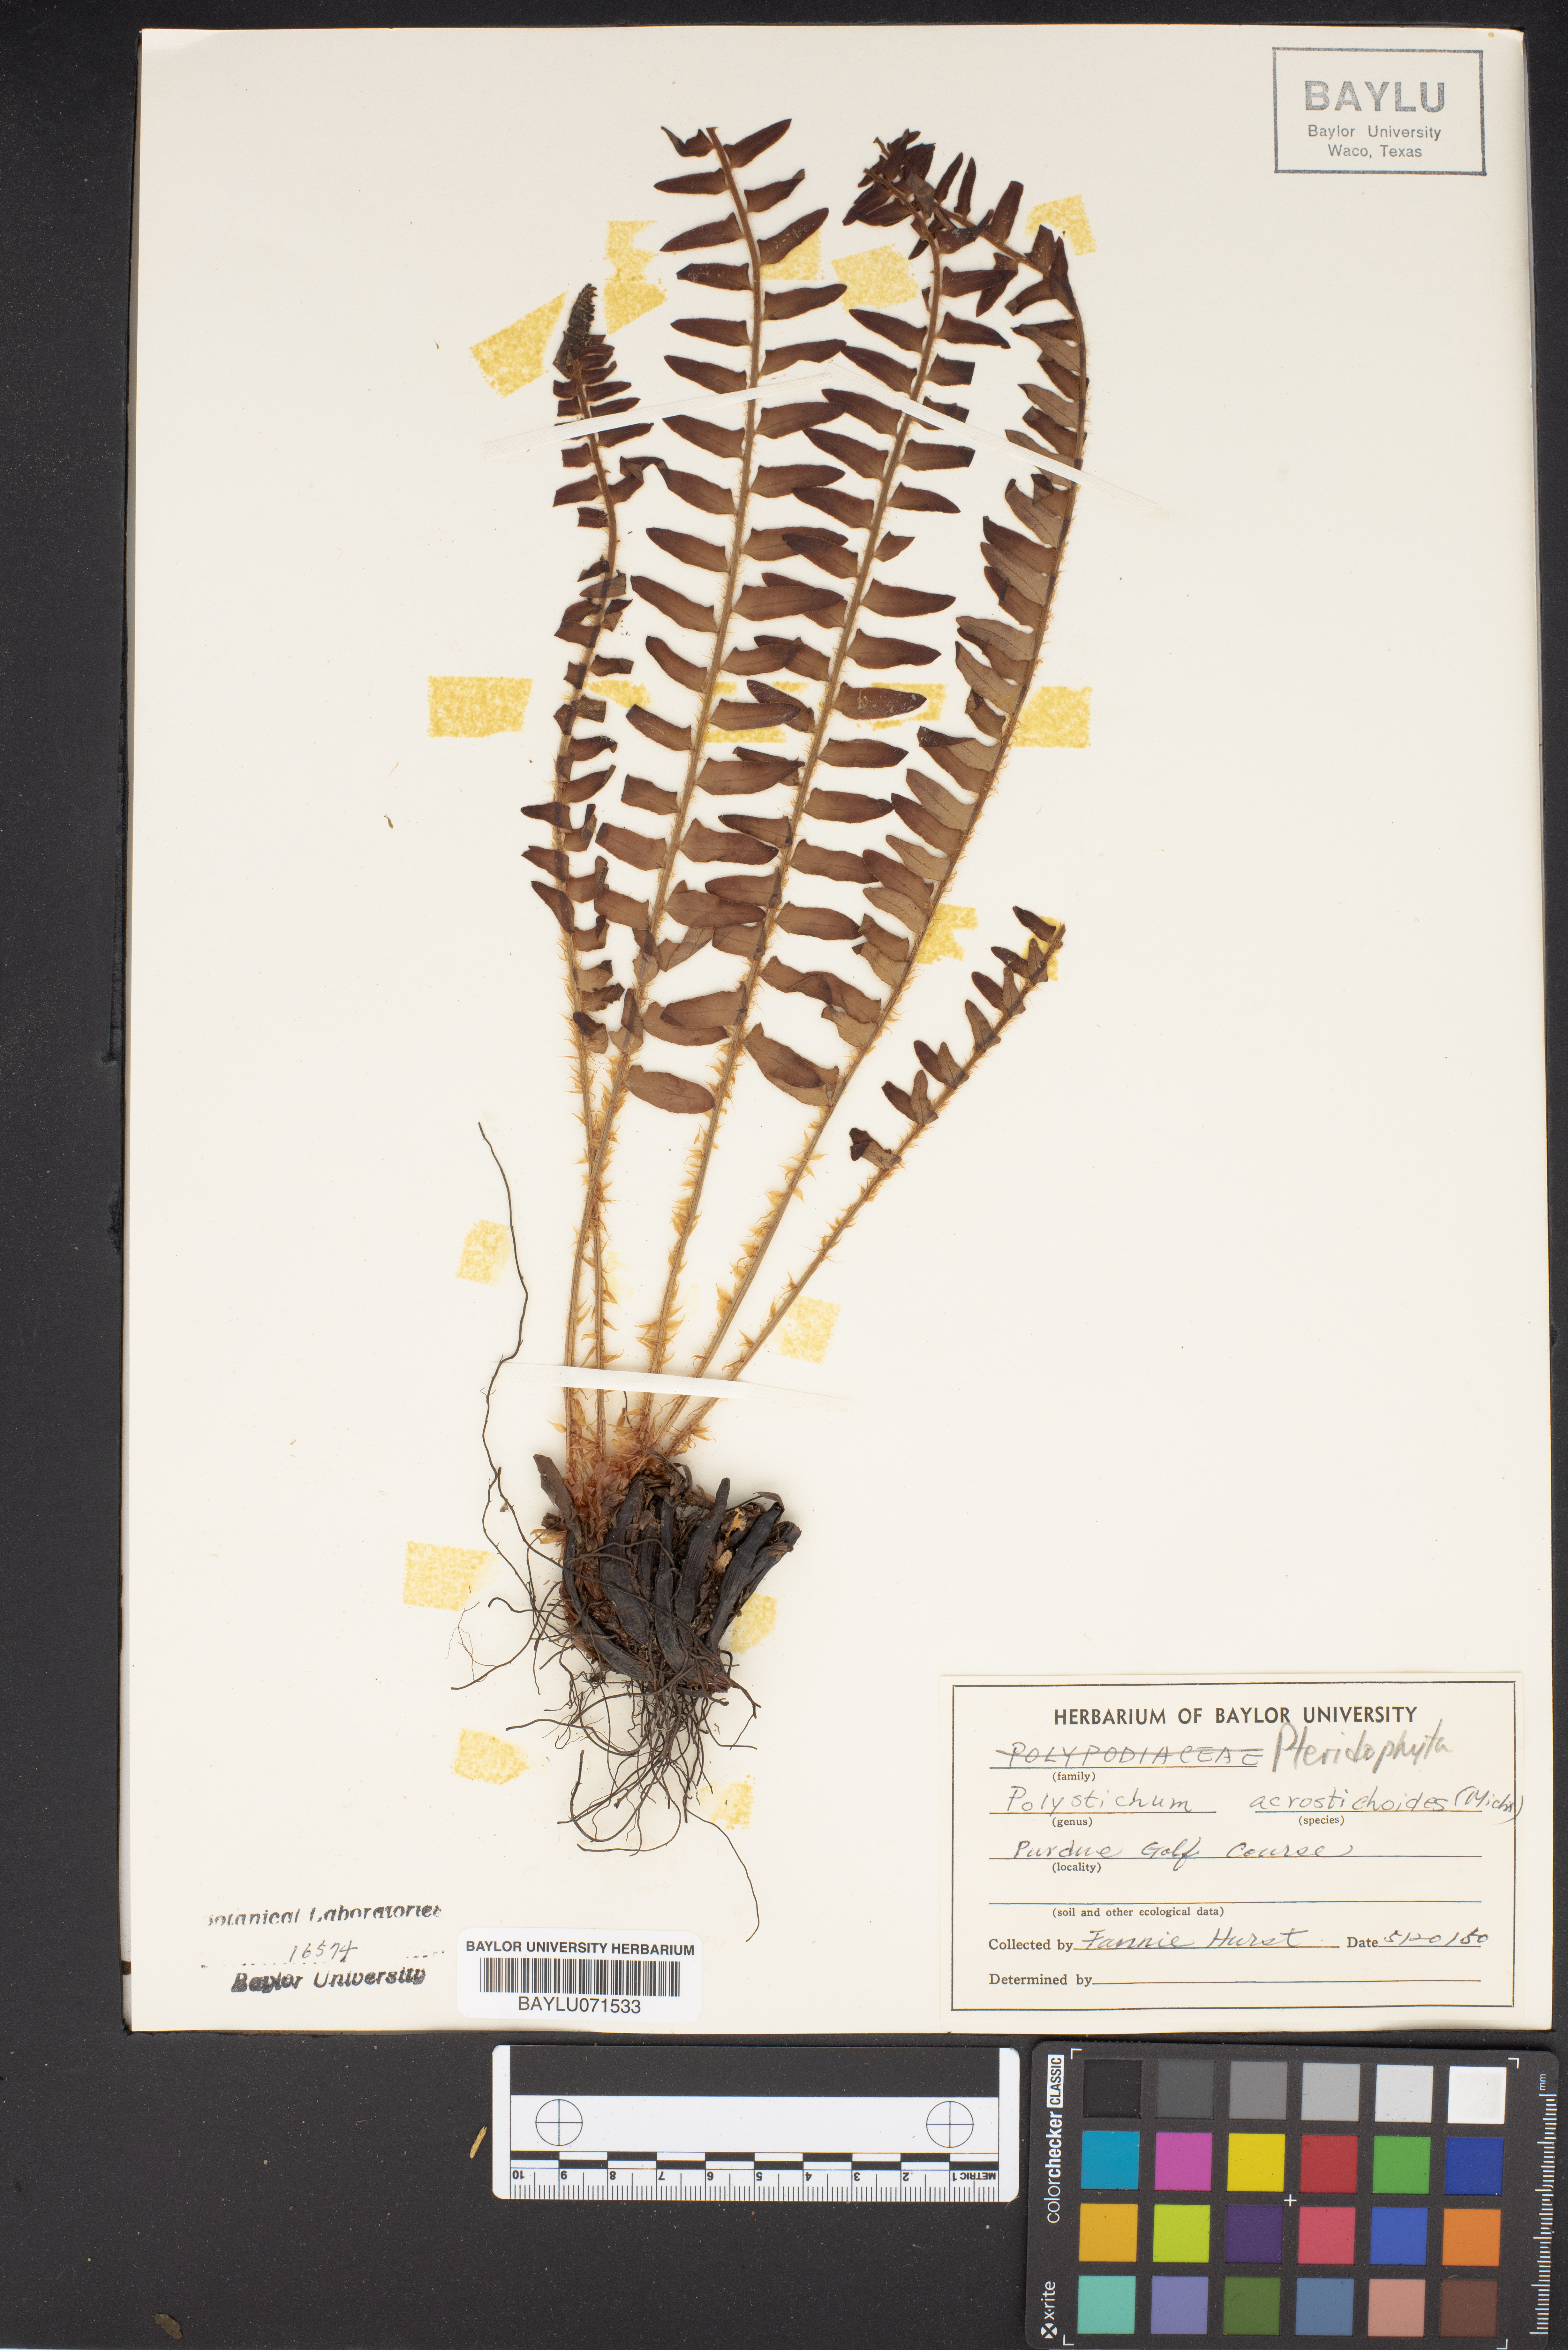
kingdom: Plantae
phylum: Tracheophyta
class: Polypodiopsida
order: Polypodiales
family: Dryopteridaceae
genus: Polystichum
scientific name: Polystichum acrostichoides
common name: Christmas fern
